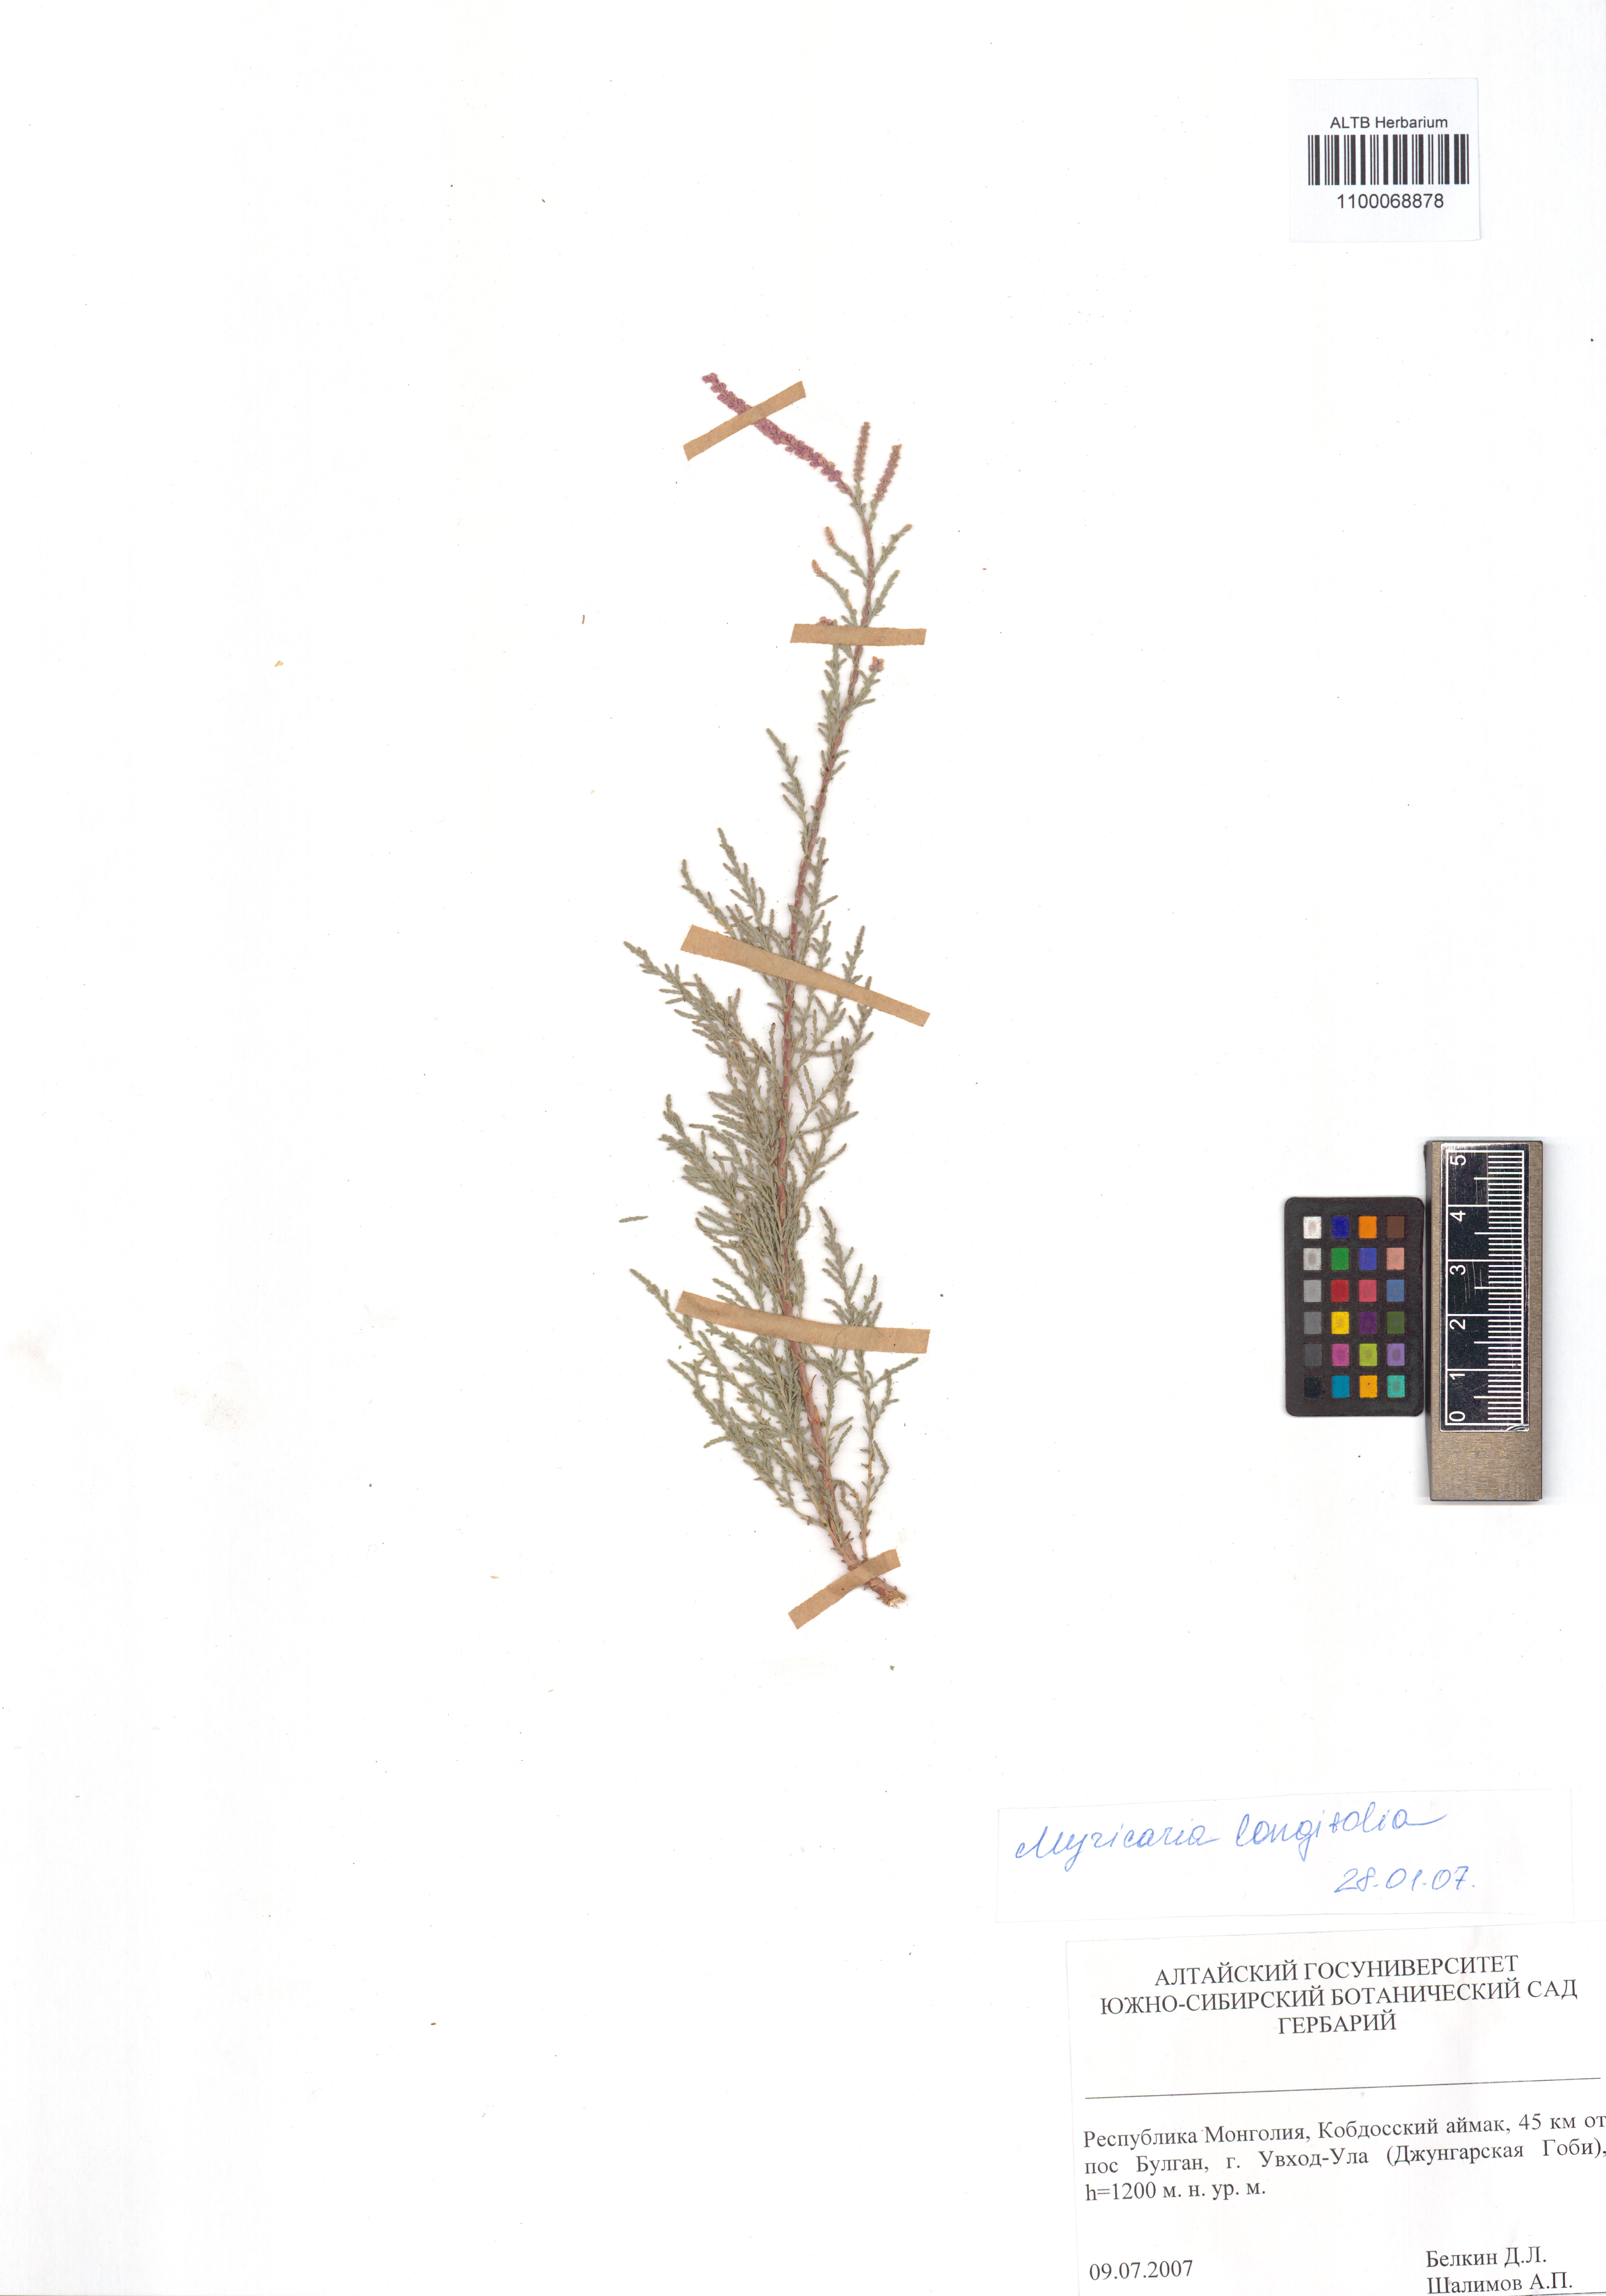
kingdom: Plantae
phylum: Tracheophyta
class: Magnoliopsida
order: Caryophyllales
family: Tamaricaceae
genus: Myricaria
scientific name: Myricaria longifolia
